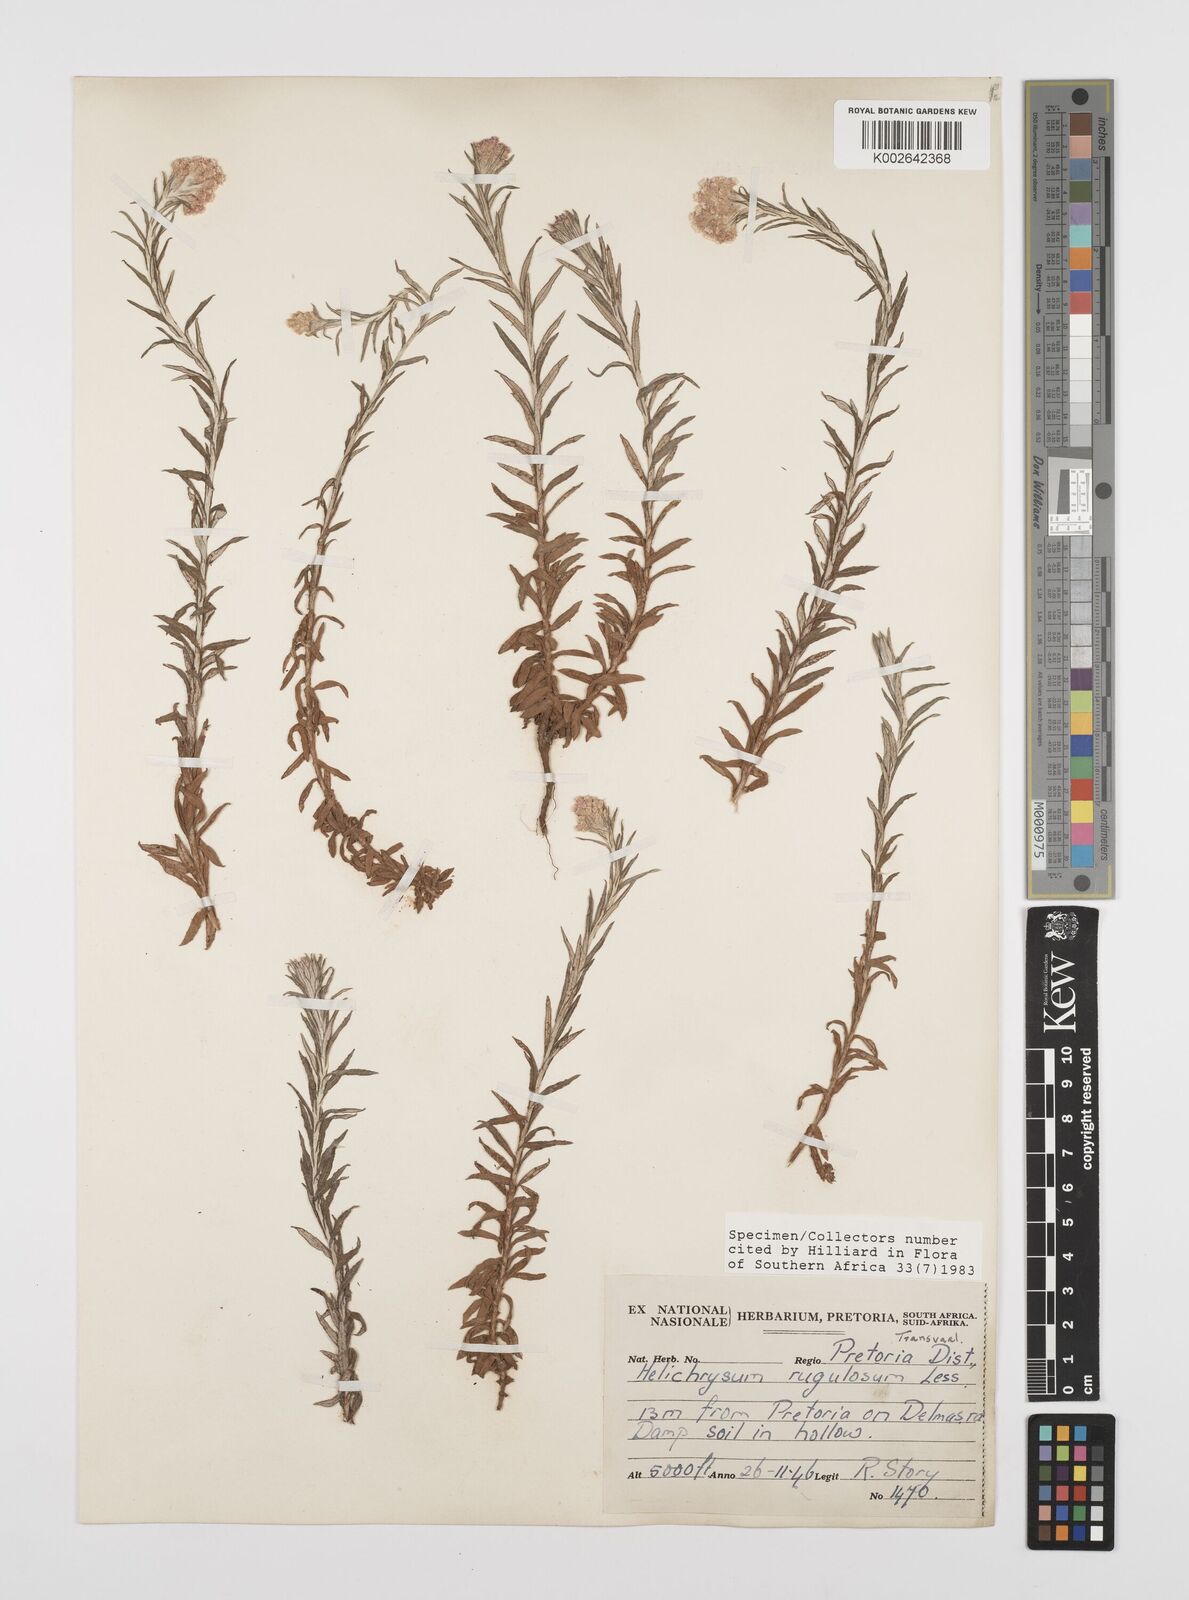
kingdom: Plantae
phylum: Tracheophyta
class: Magnoliopsida
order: Asterales
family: Asteraceae
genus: Helichrysum
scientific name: Helichrysum rugulosum
